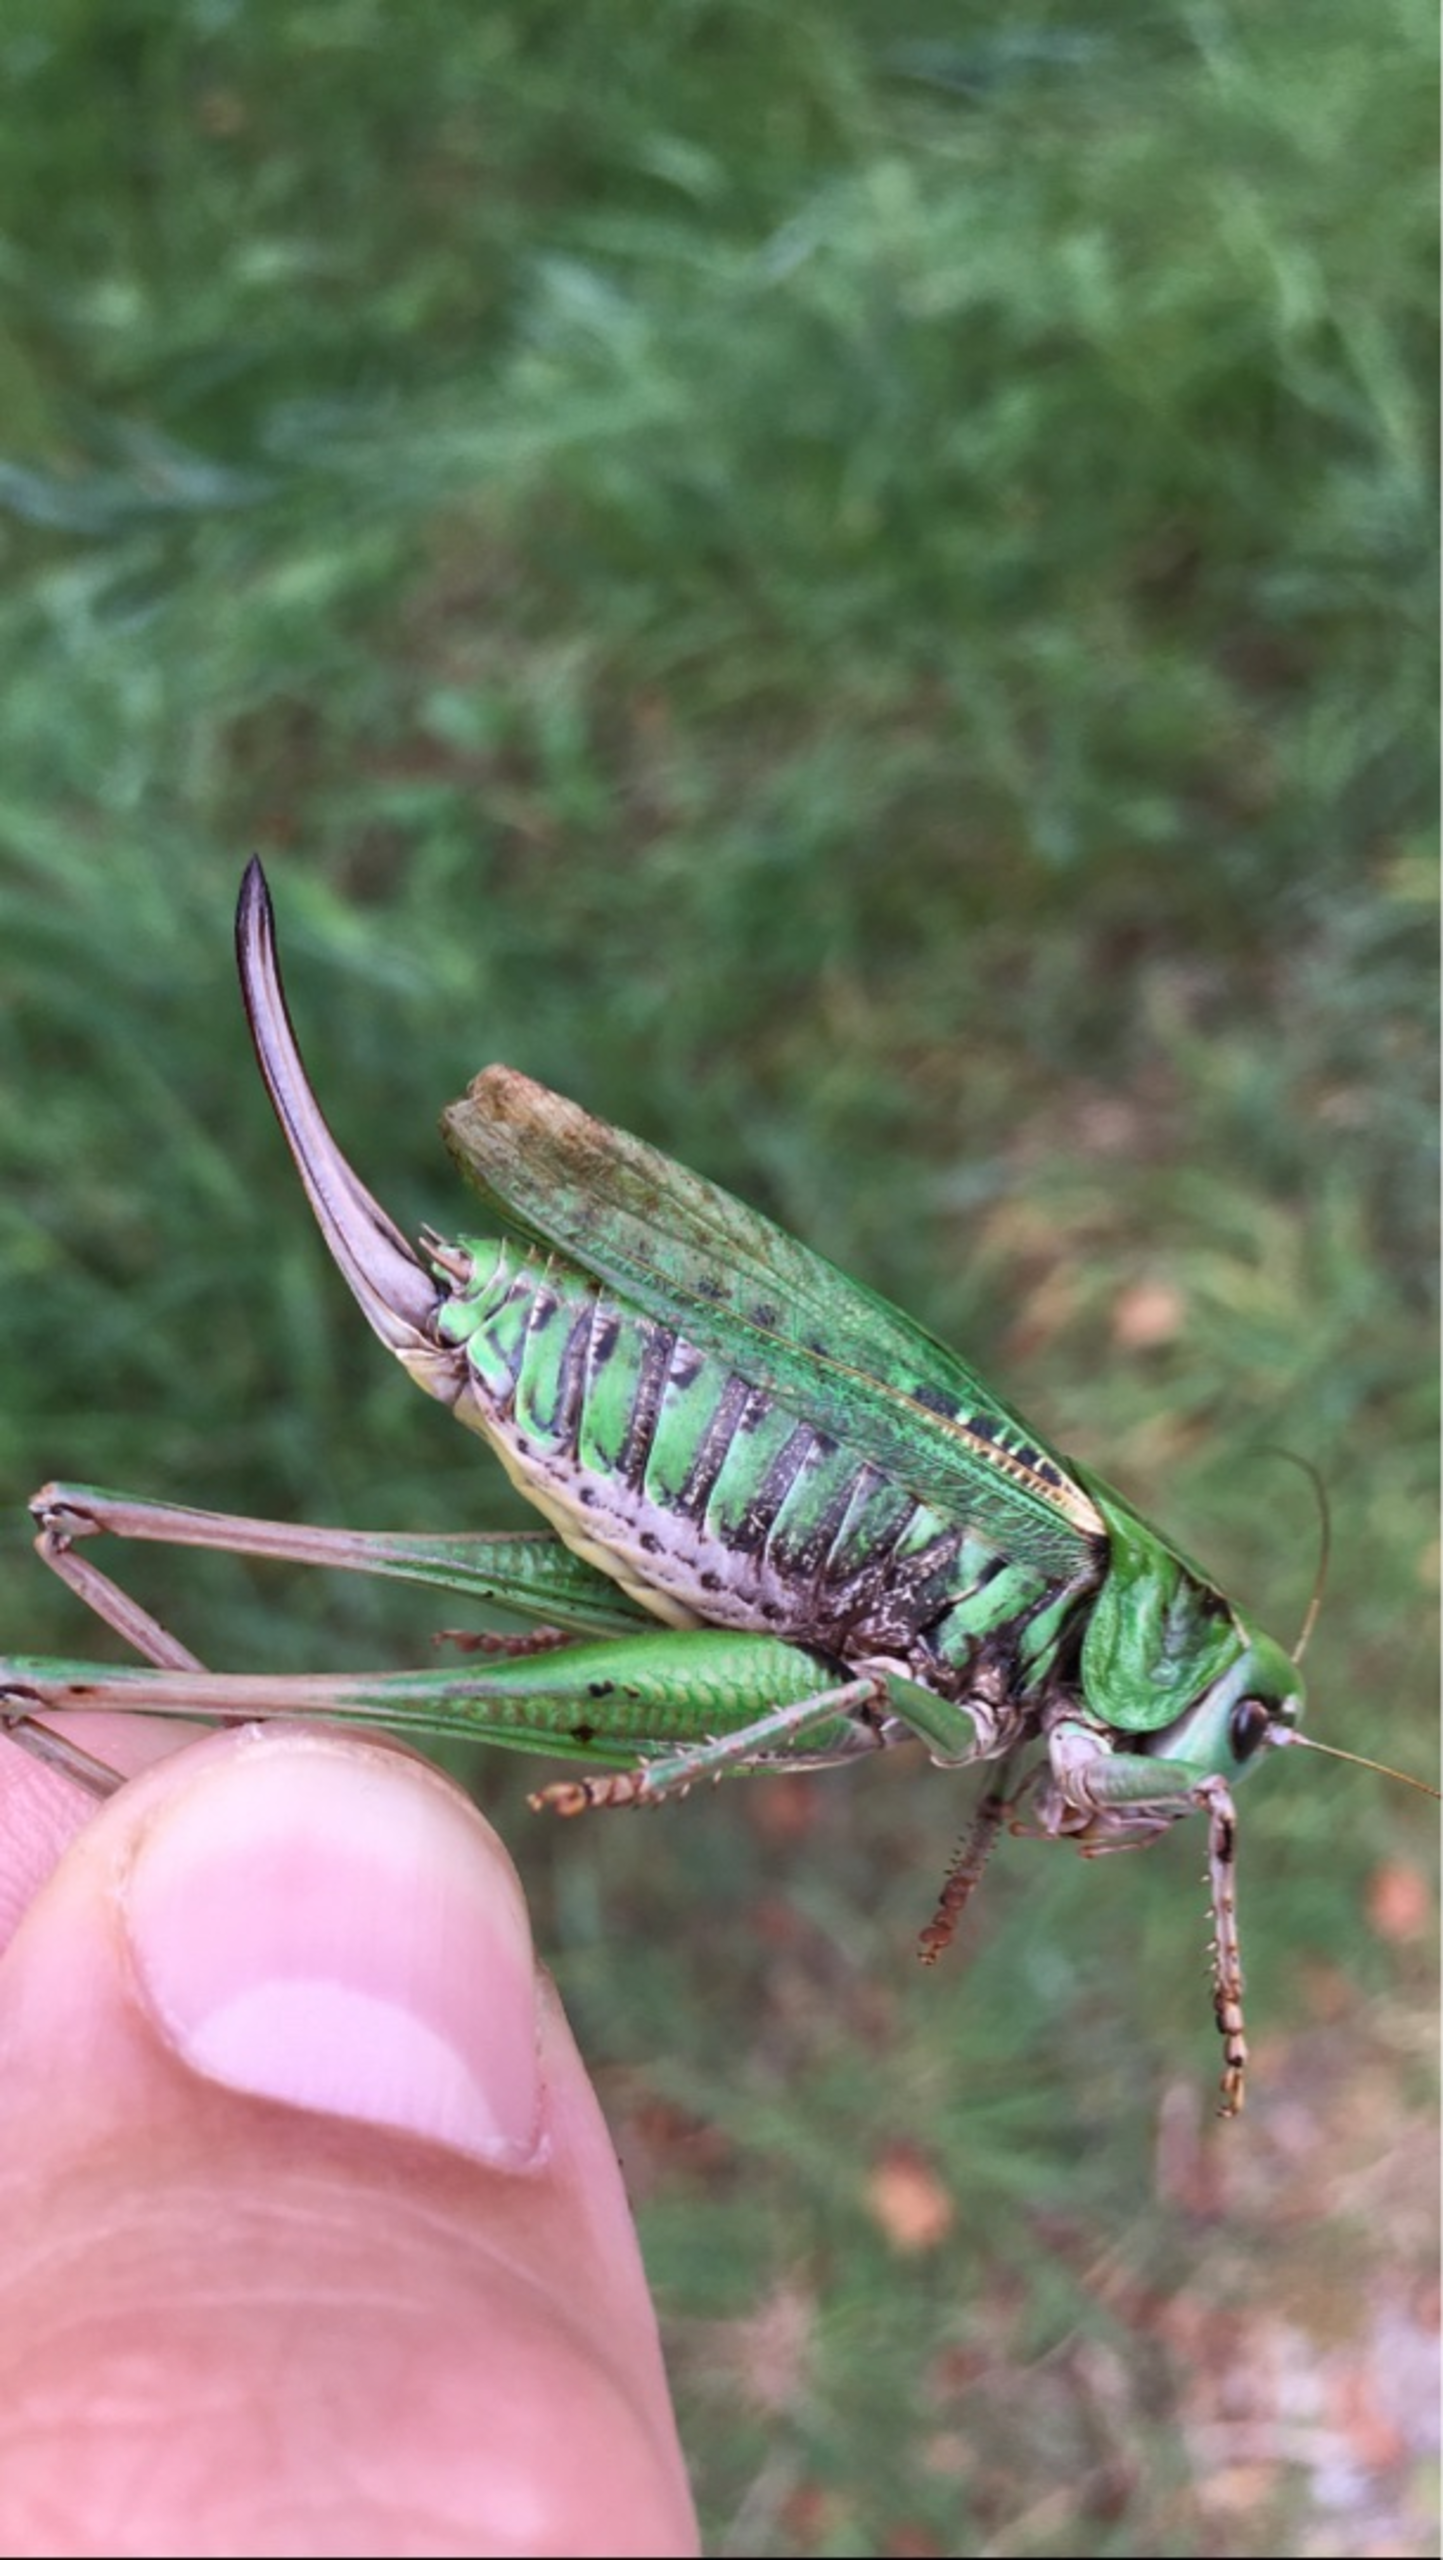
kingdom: Animalia
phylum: Arthropoda
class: Insecta
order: Orthoptera
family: Tettigoniidae
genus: Decticus
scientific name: Decticus verrucivorus
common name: Vortebider
